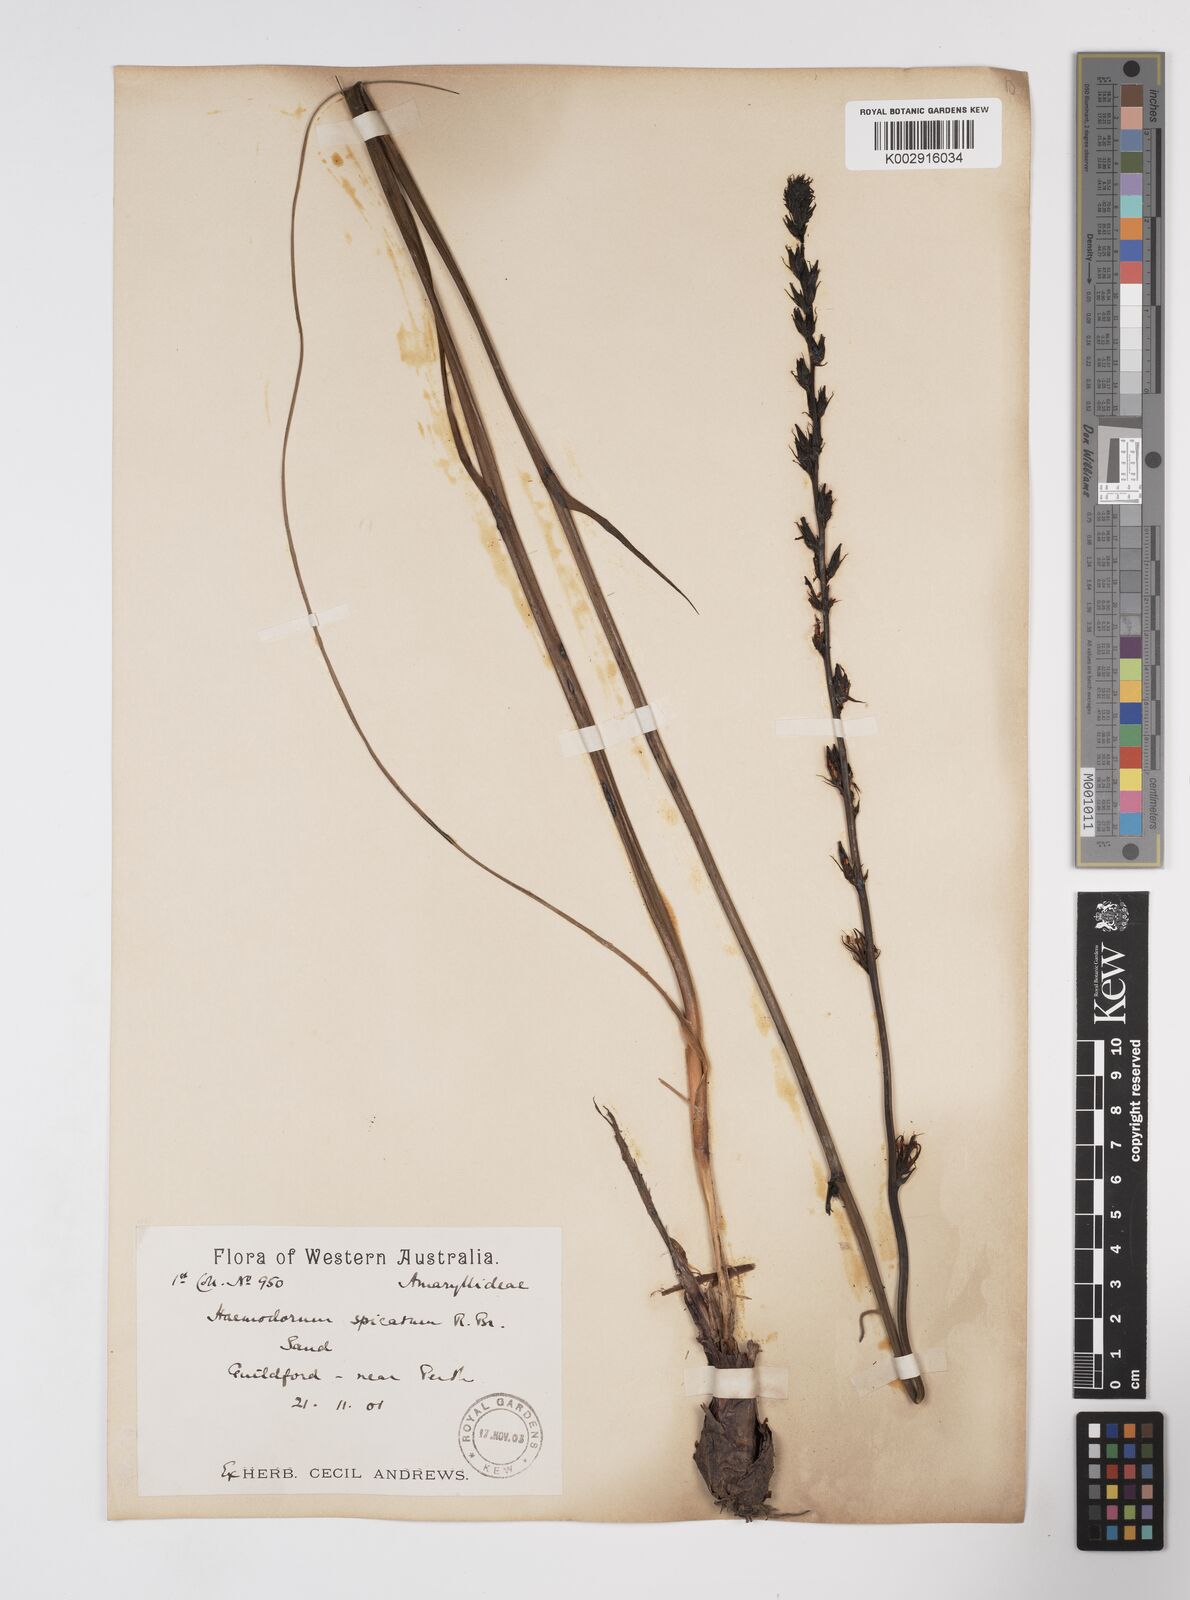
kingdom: Plantae
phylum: Tracheophyta
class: Liliopsida
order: Commelinales
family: Haemodoraceae
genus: Haemodorum
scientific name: Haemodorum spicatum
